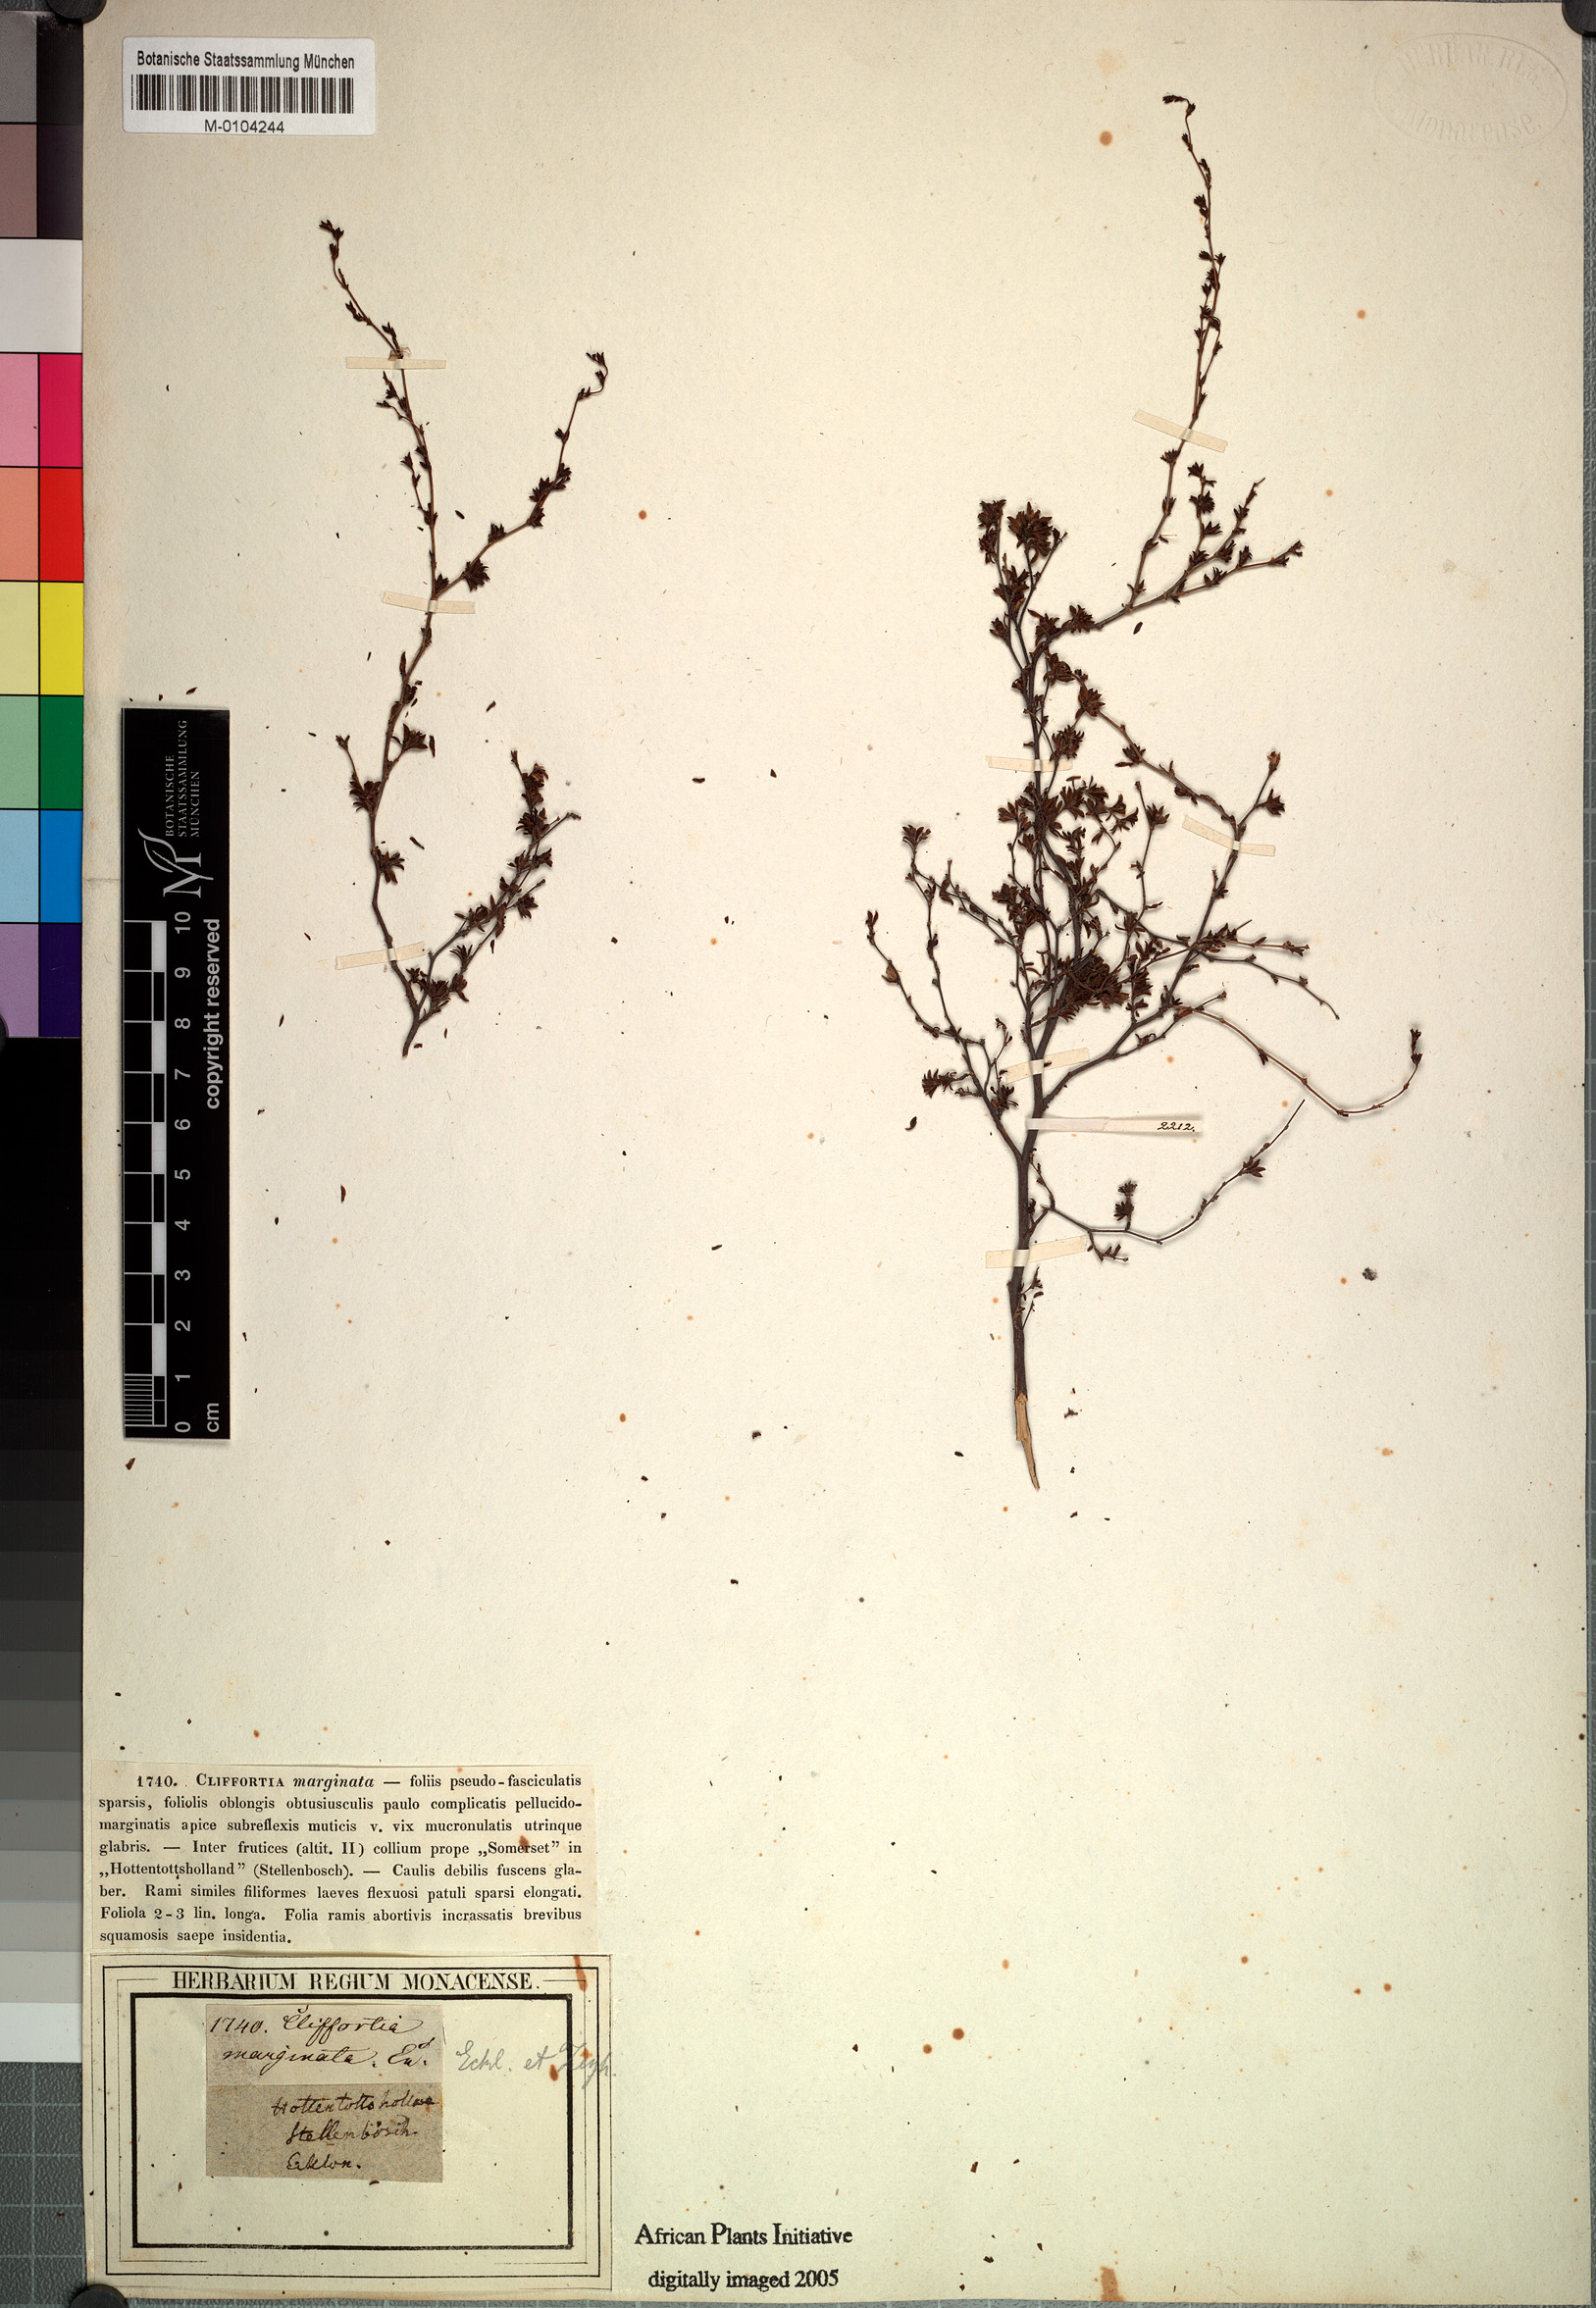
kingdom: Plantae
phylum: Tracheophyta
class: Magnoliopsida
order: Rosales
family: Rosaceae
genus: Cliffortia
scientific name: Cliffortia marginata
